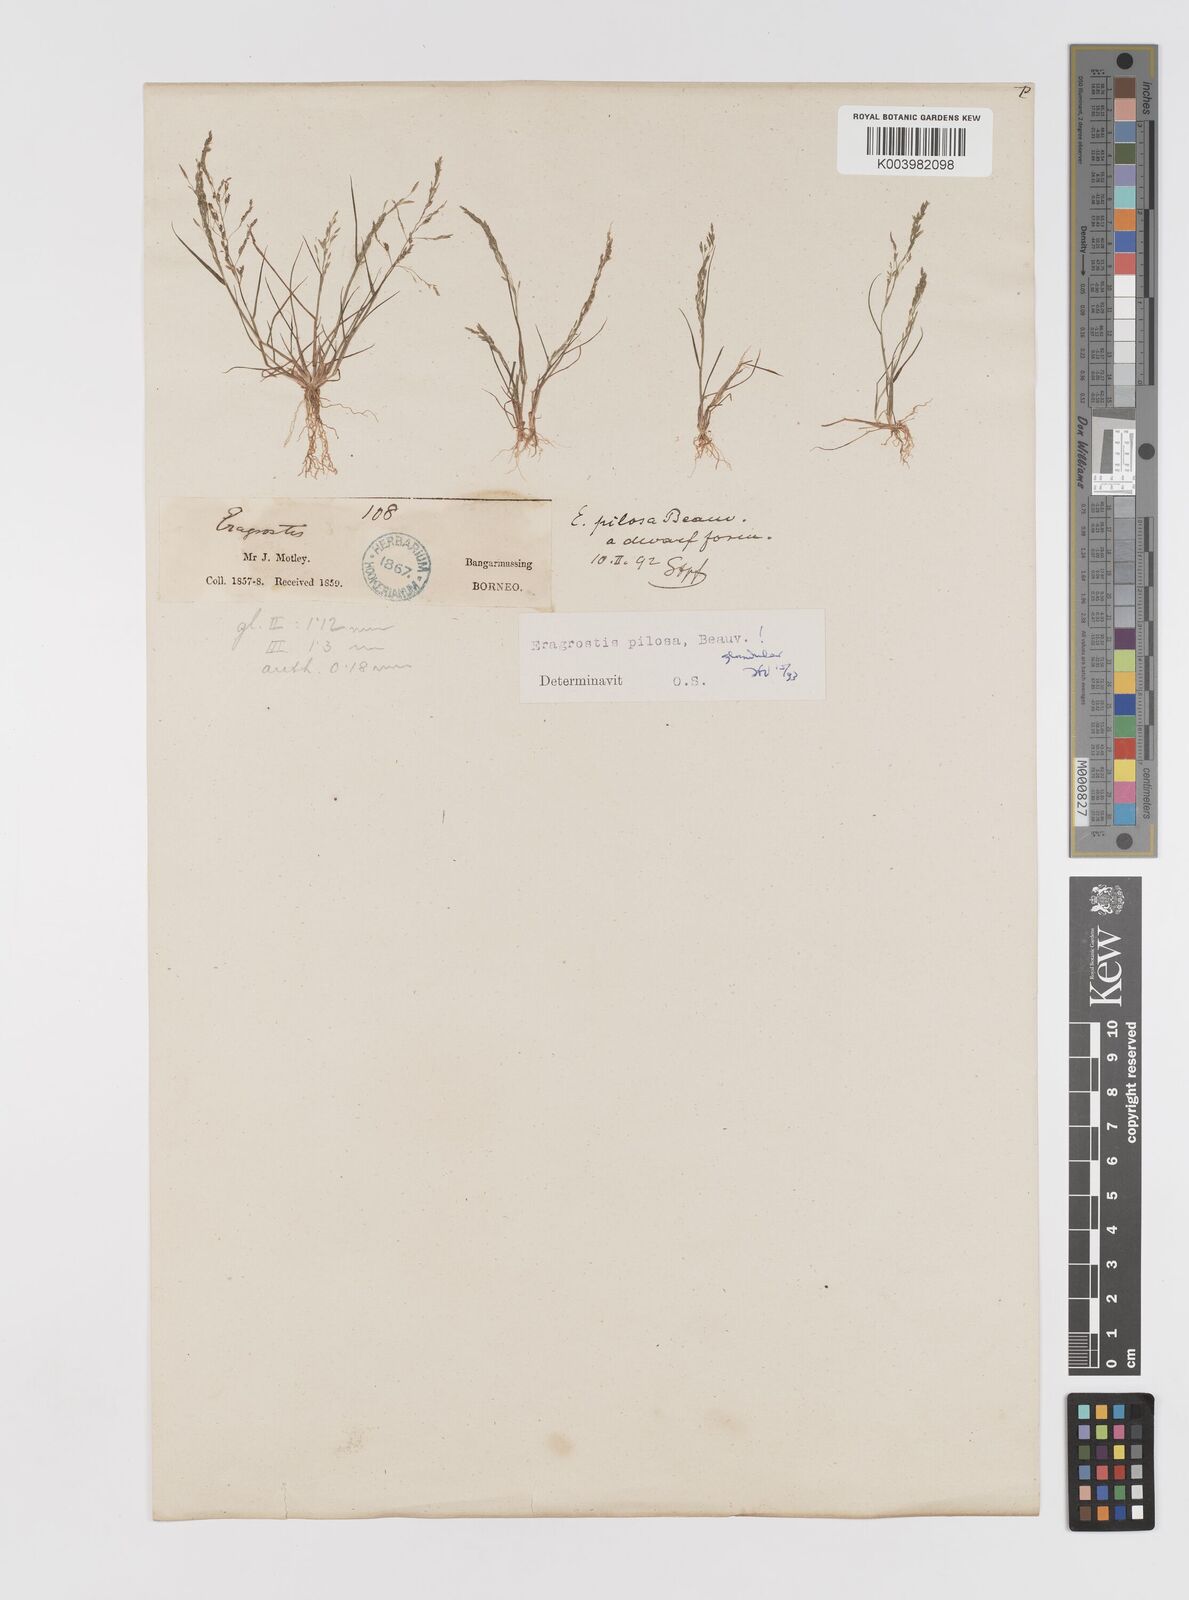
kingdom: Plantae
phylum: Tracheophyta
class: Liliopsida
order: Poales
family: Poaceae
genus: Eragrostis
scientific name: Eragrostis pilosa
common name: Indian lovegrass
